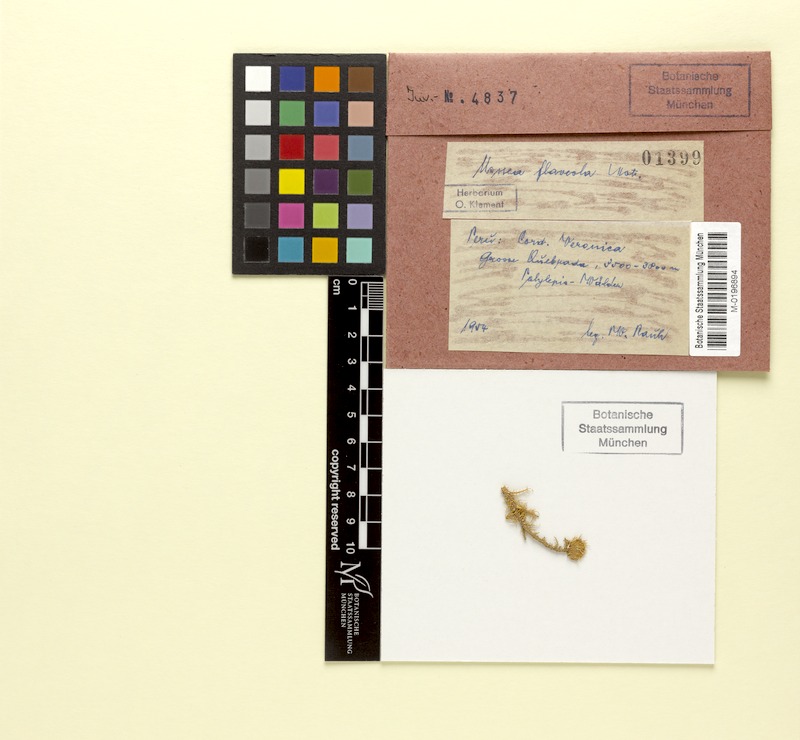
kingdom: Fungi
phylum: Ascomycota
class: Lecanoromycetes
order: Lecanorales
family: Parmeliaceae
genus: Usnea
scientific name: Usnea flaveola
